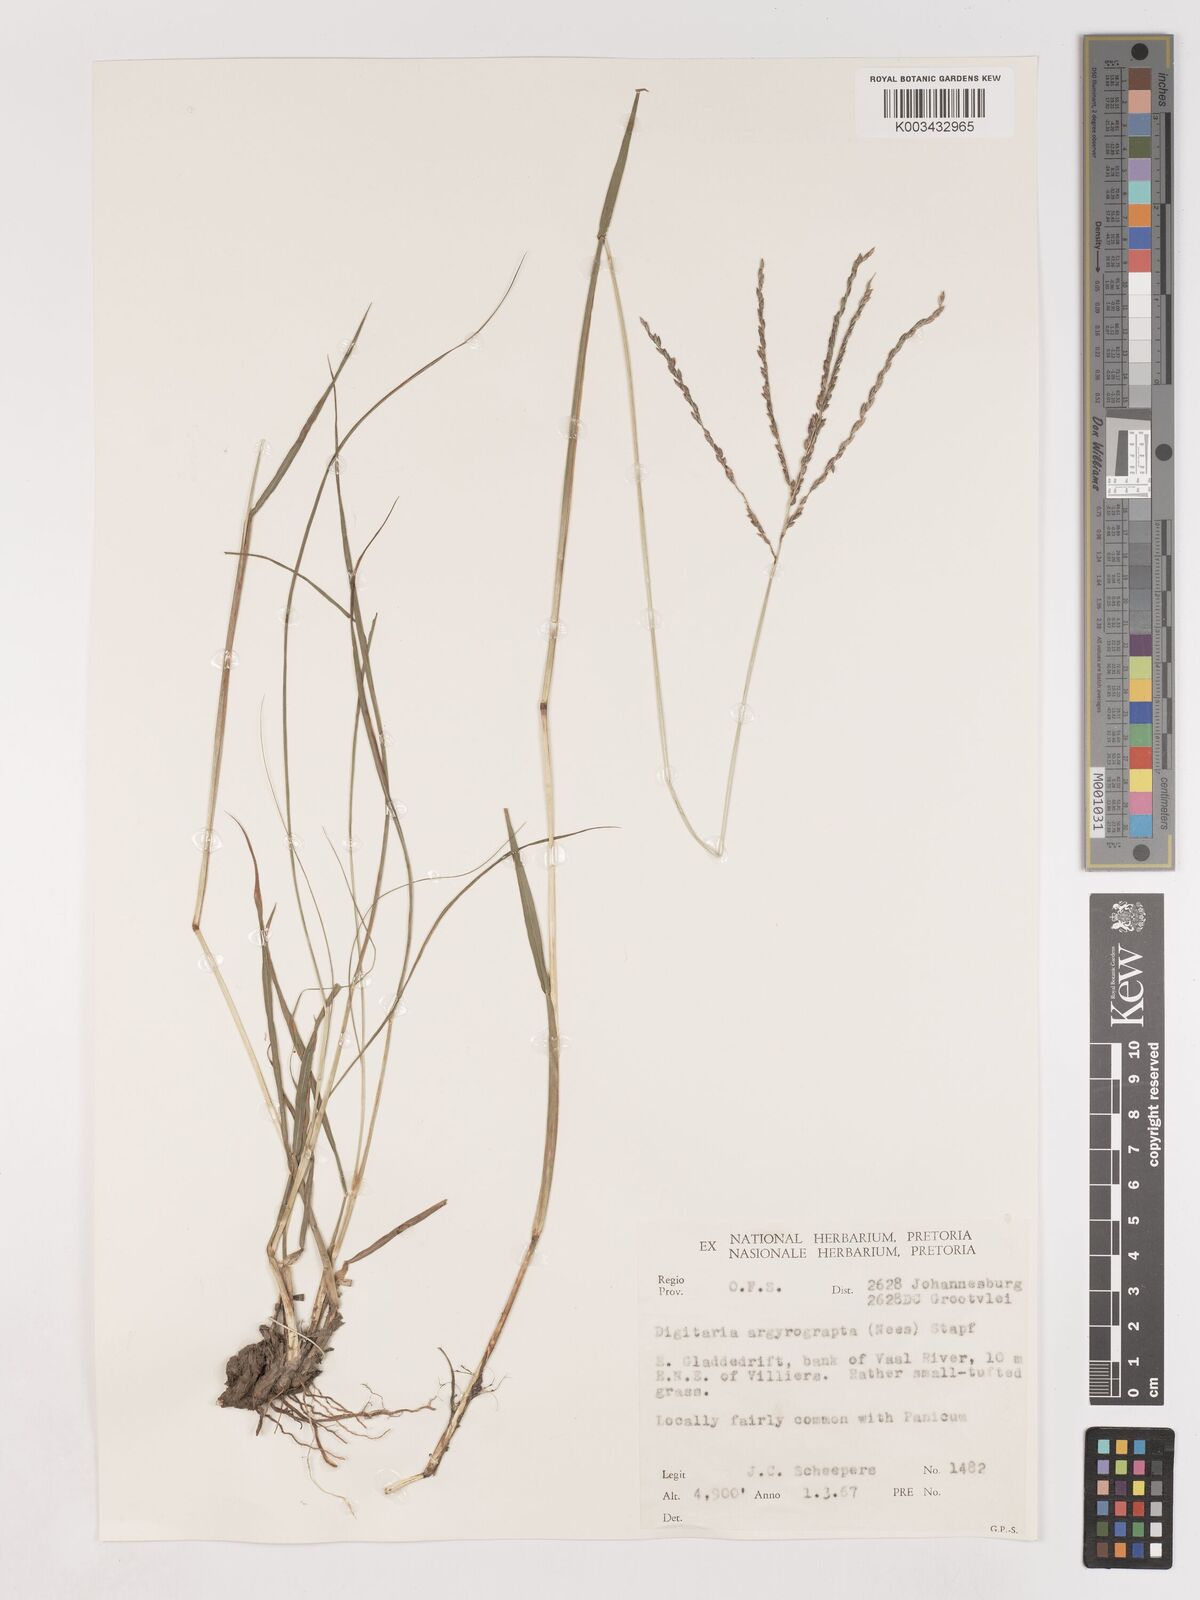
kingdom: Plantae
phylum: Tracheophyta
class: Liliopsida
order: Poales
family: Poaceae
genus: Digitaria
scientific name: Digitaria argyrograpta
